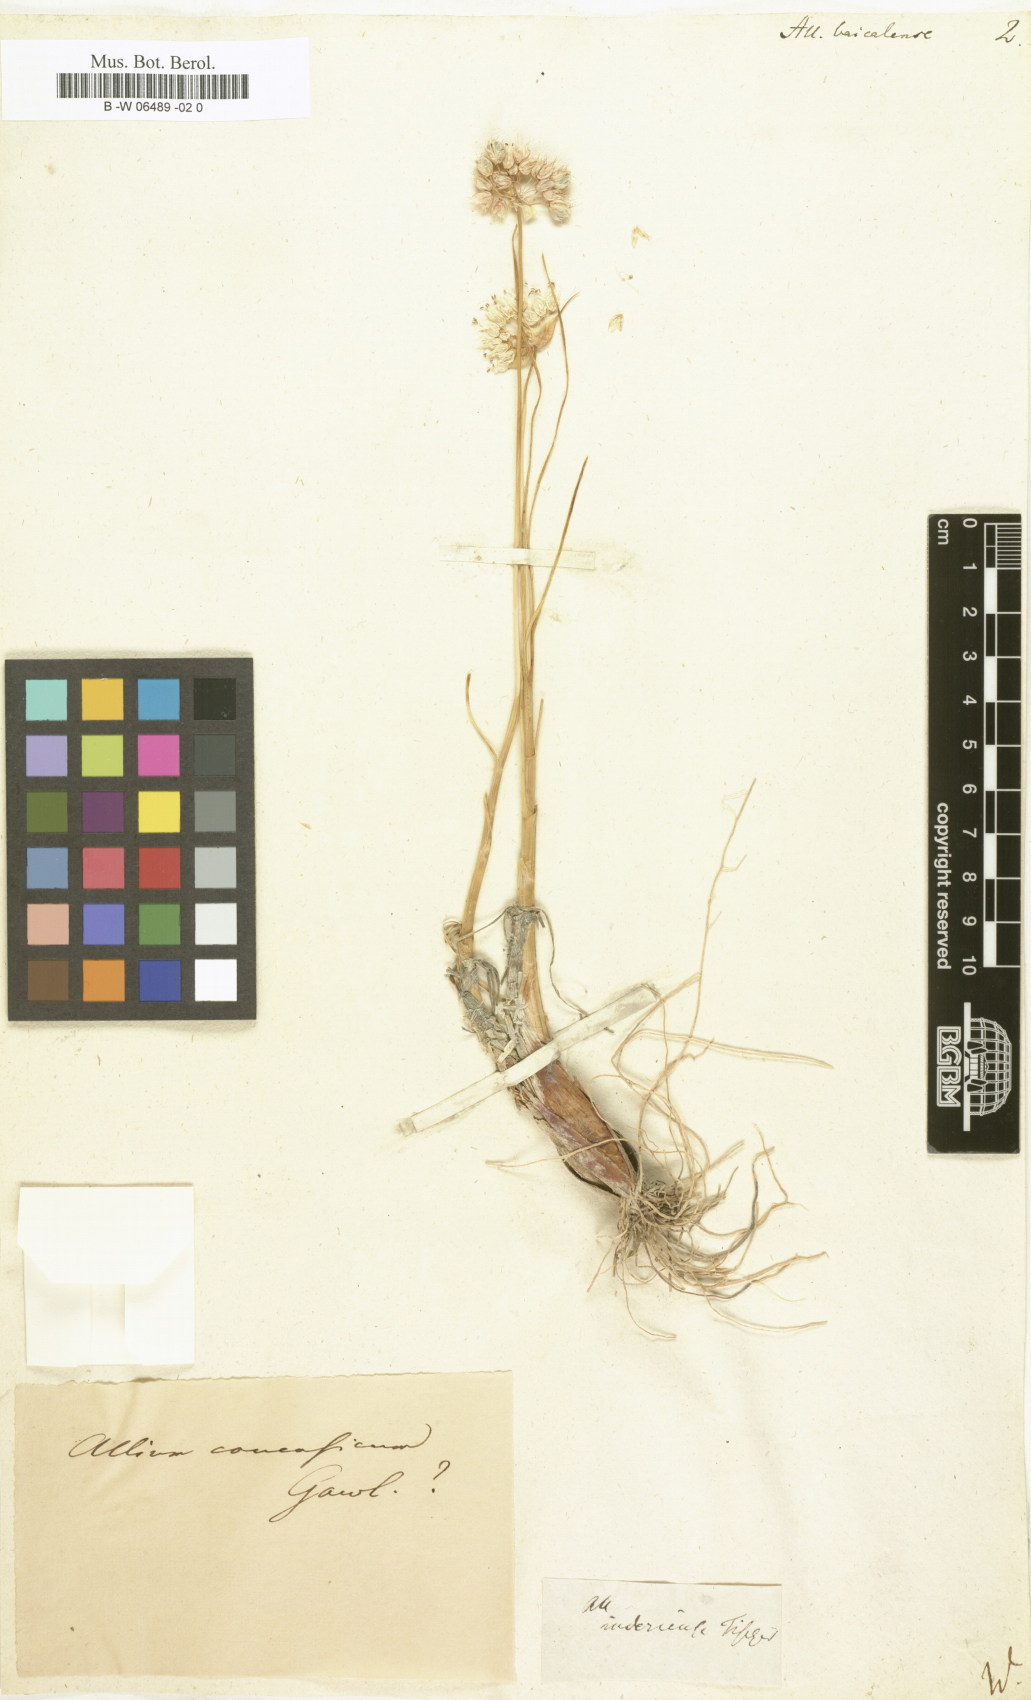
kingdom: Plantae
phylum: Tracheophyta
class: Liliopsida
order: Asparagales
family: Amaryllidaceae
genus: Allium
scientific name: Allium senescens
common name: German garlic
